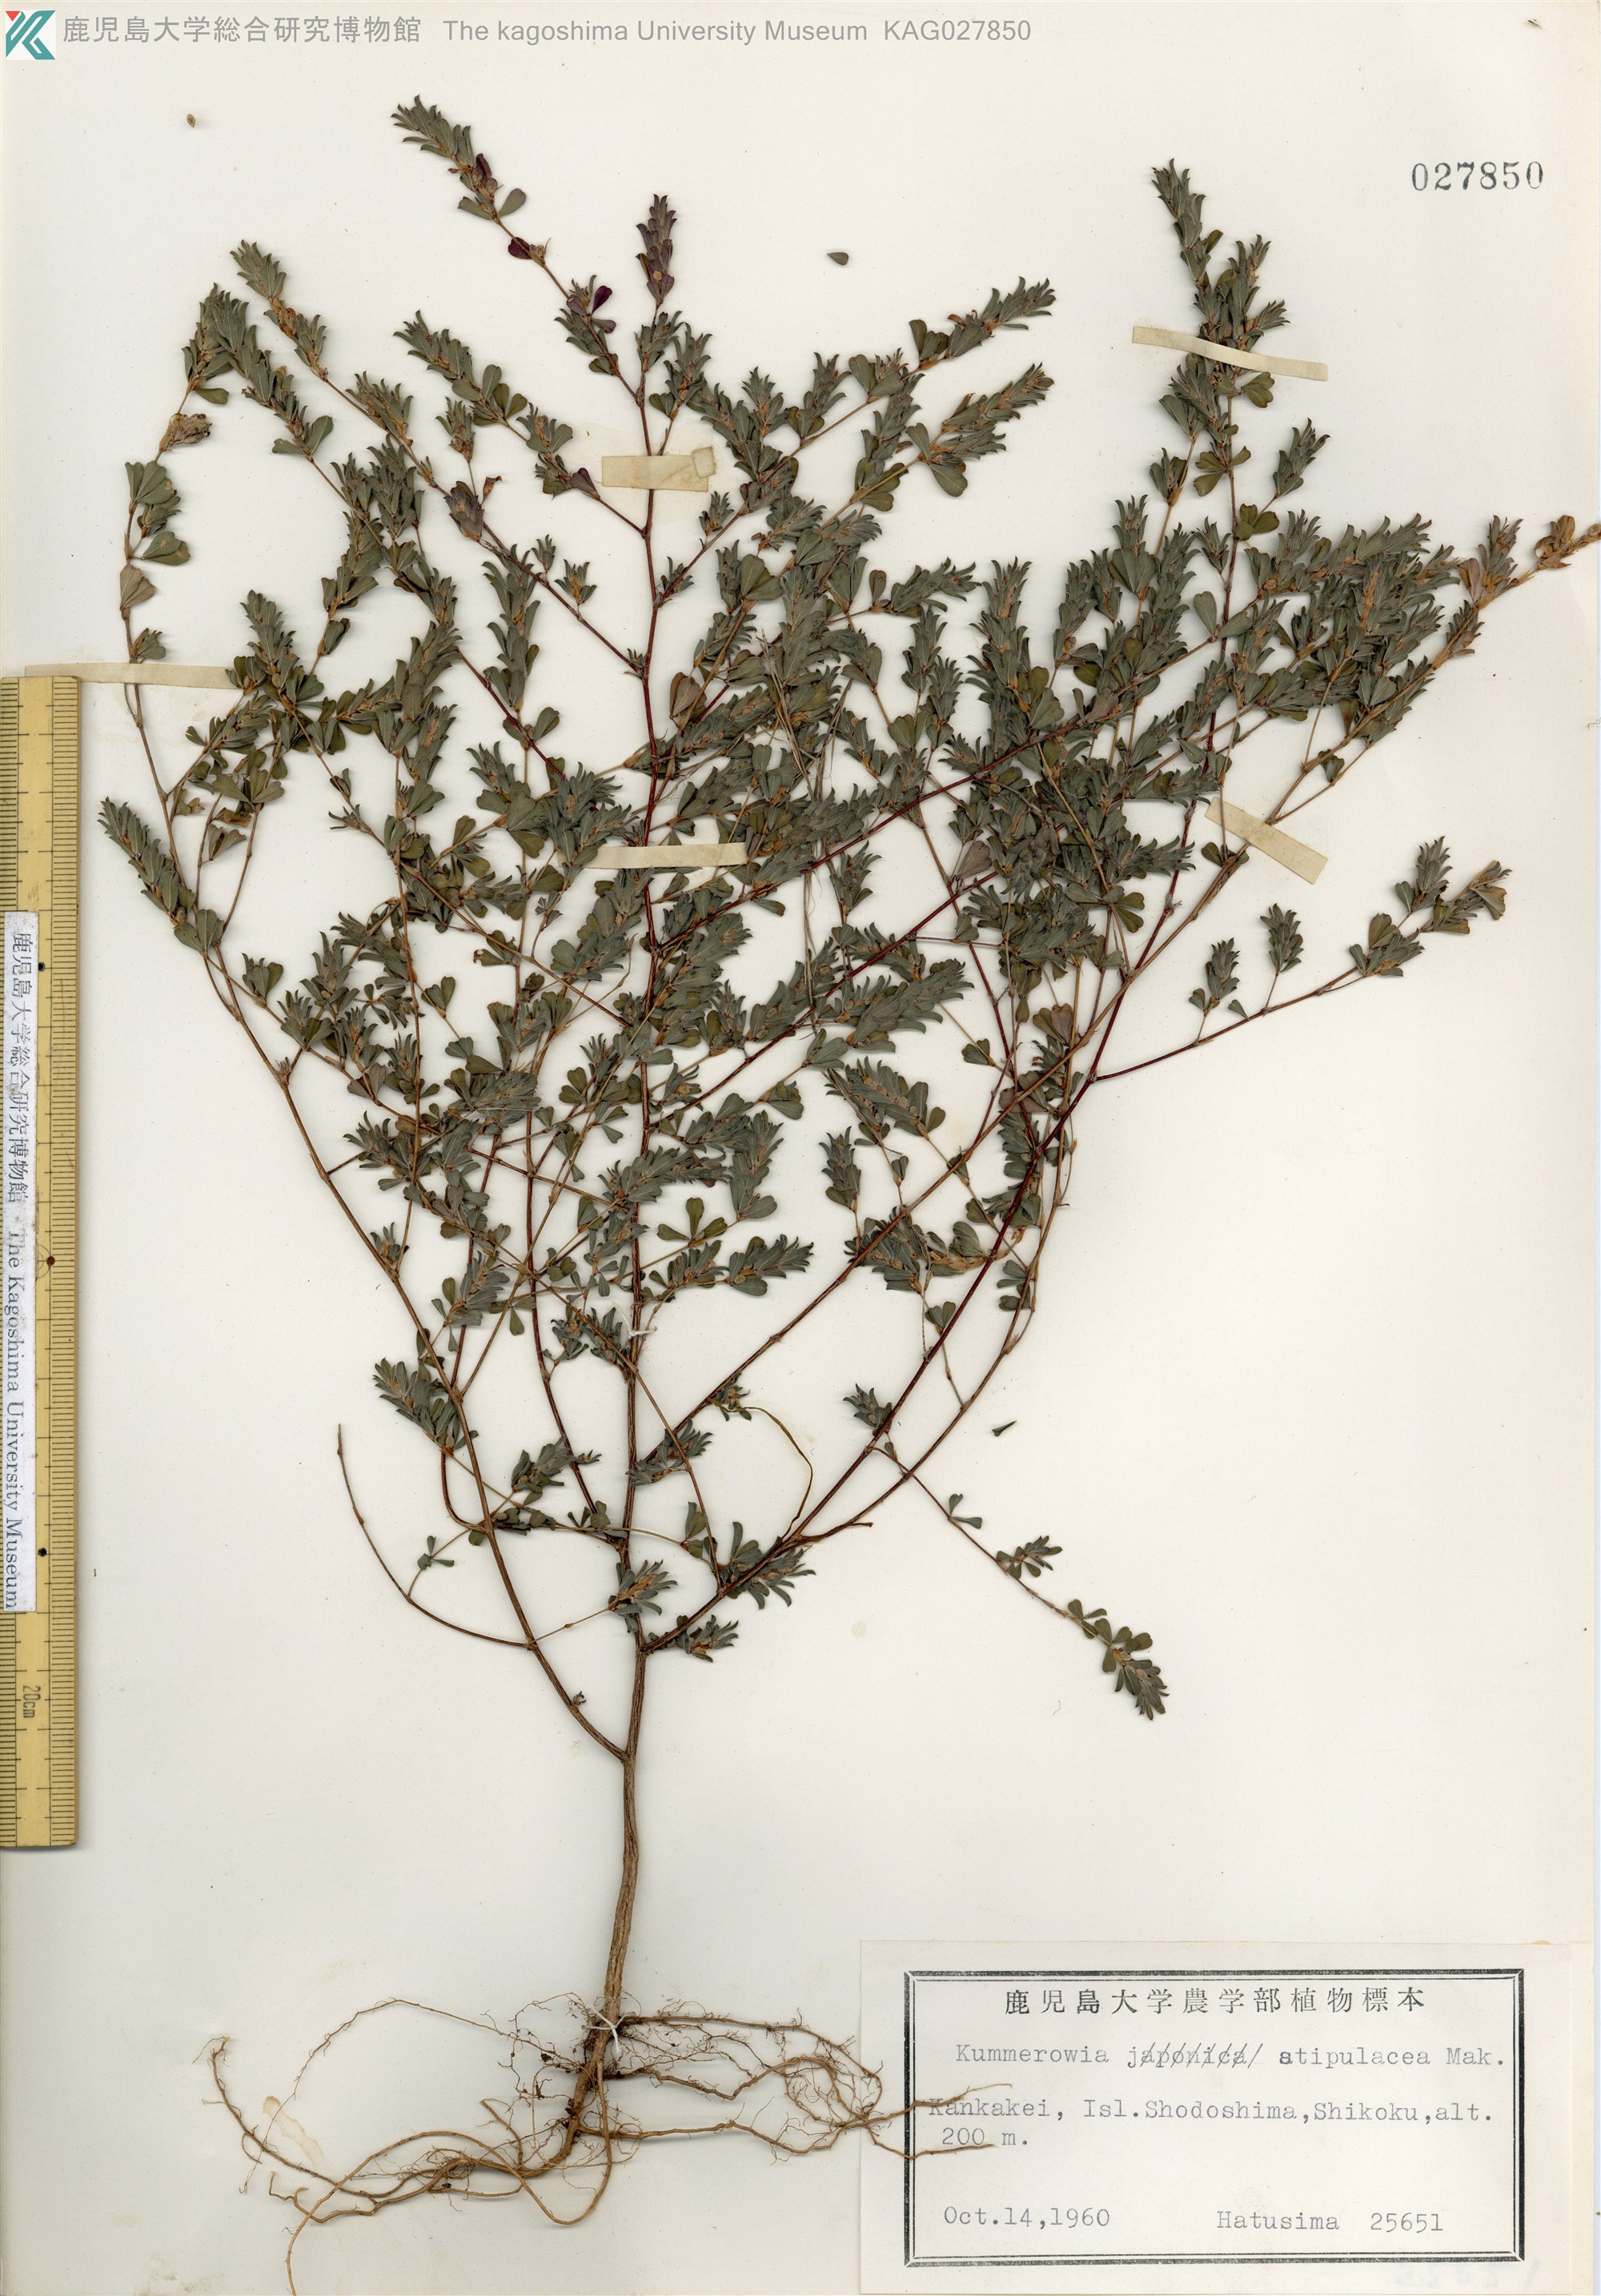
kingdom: Plantae
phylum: Tracheophyta
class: Magnoliopsida
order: Fabales
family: Fabaceae
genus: Kummerowia
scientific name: Kummerowia stipulacea
